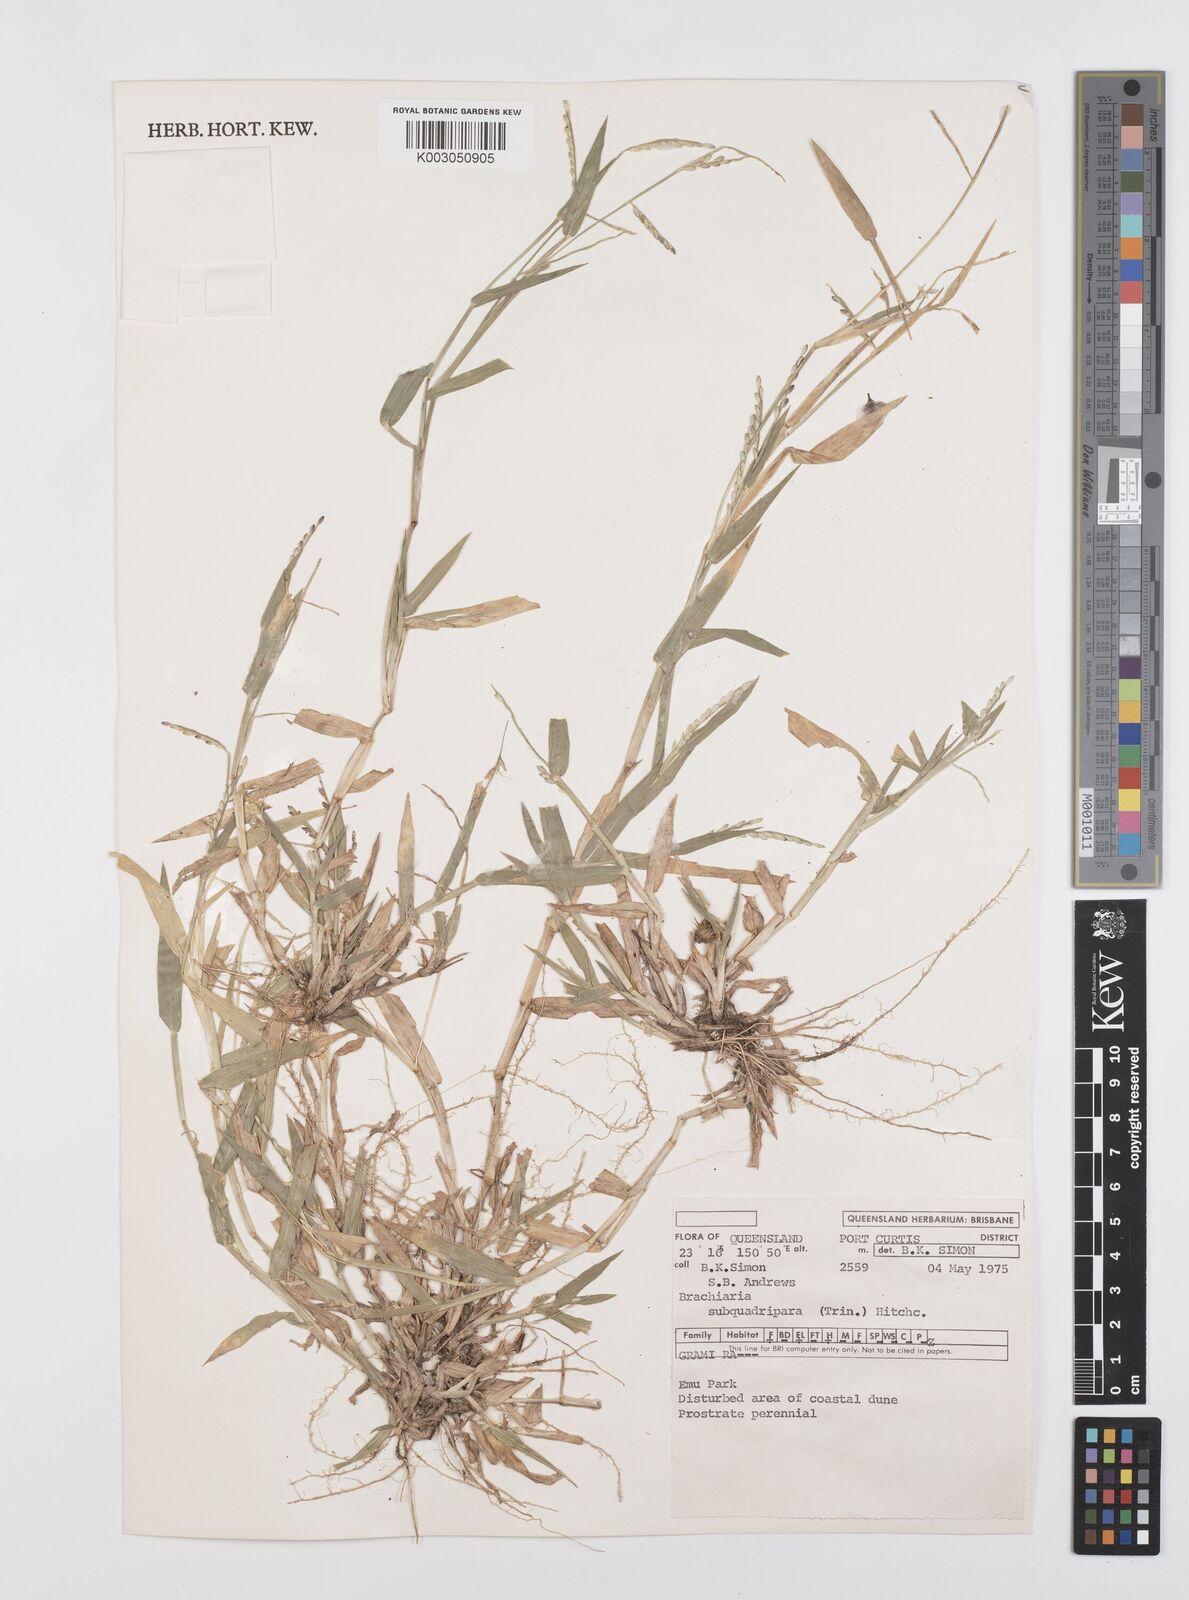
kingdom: Plantae
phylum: Tracheophyta
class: Liliopsida
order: Poales
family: Poaceae
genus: Urochloa
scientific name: Urochloa subquadripara
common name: Armgrass millet
